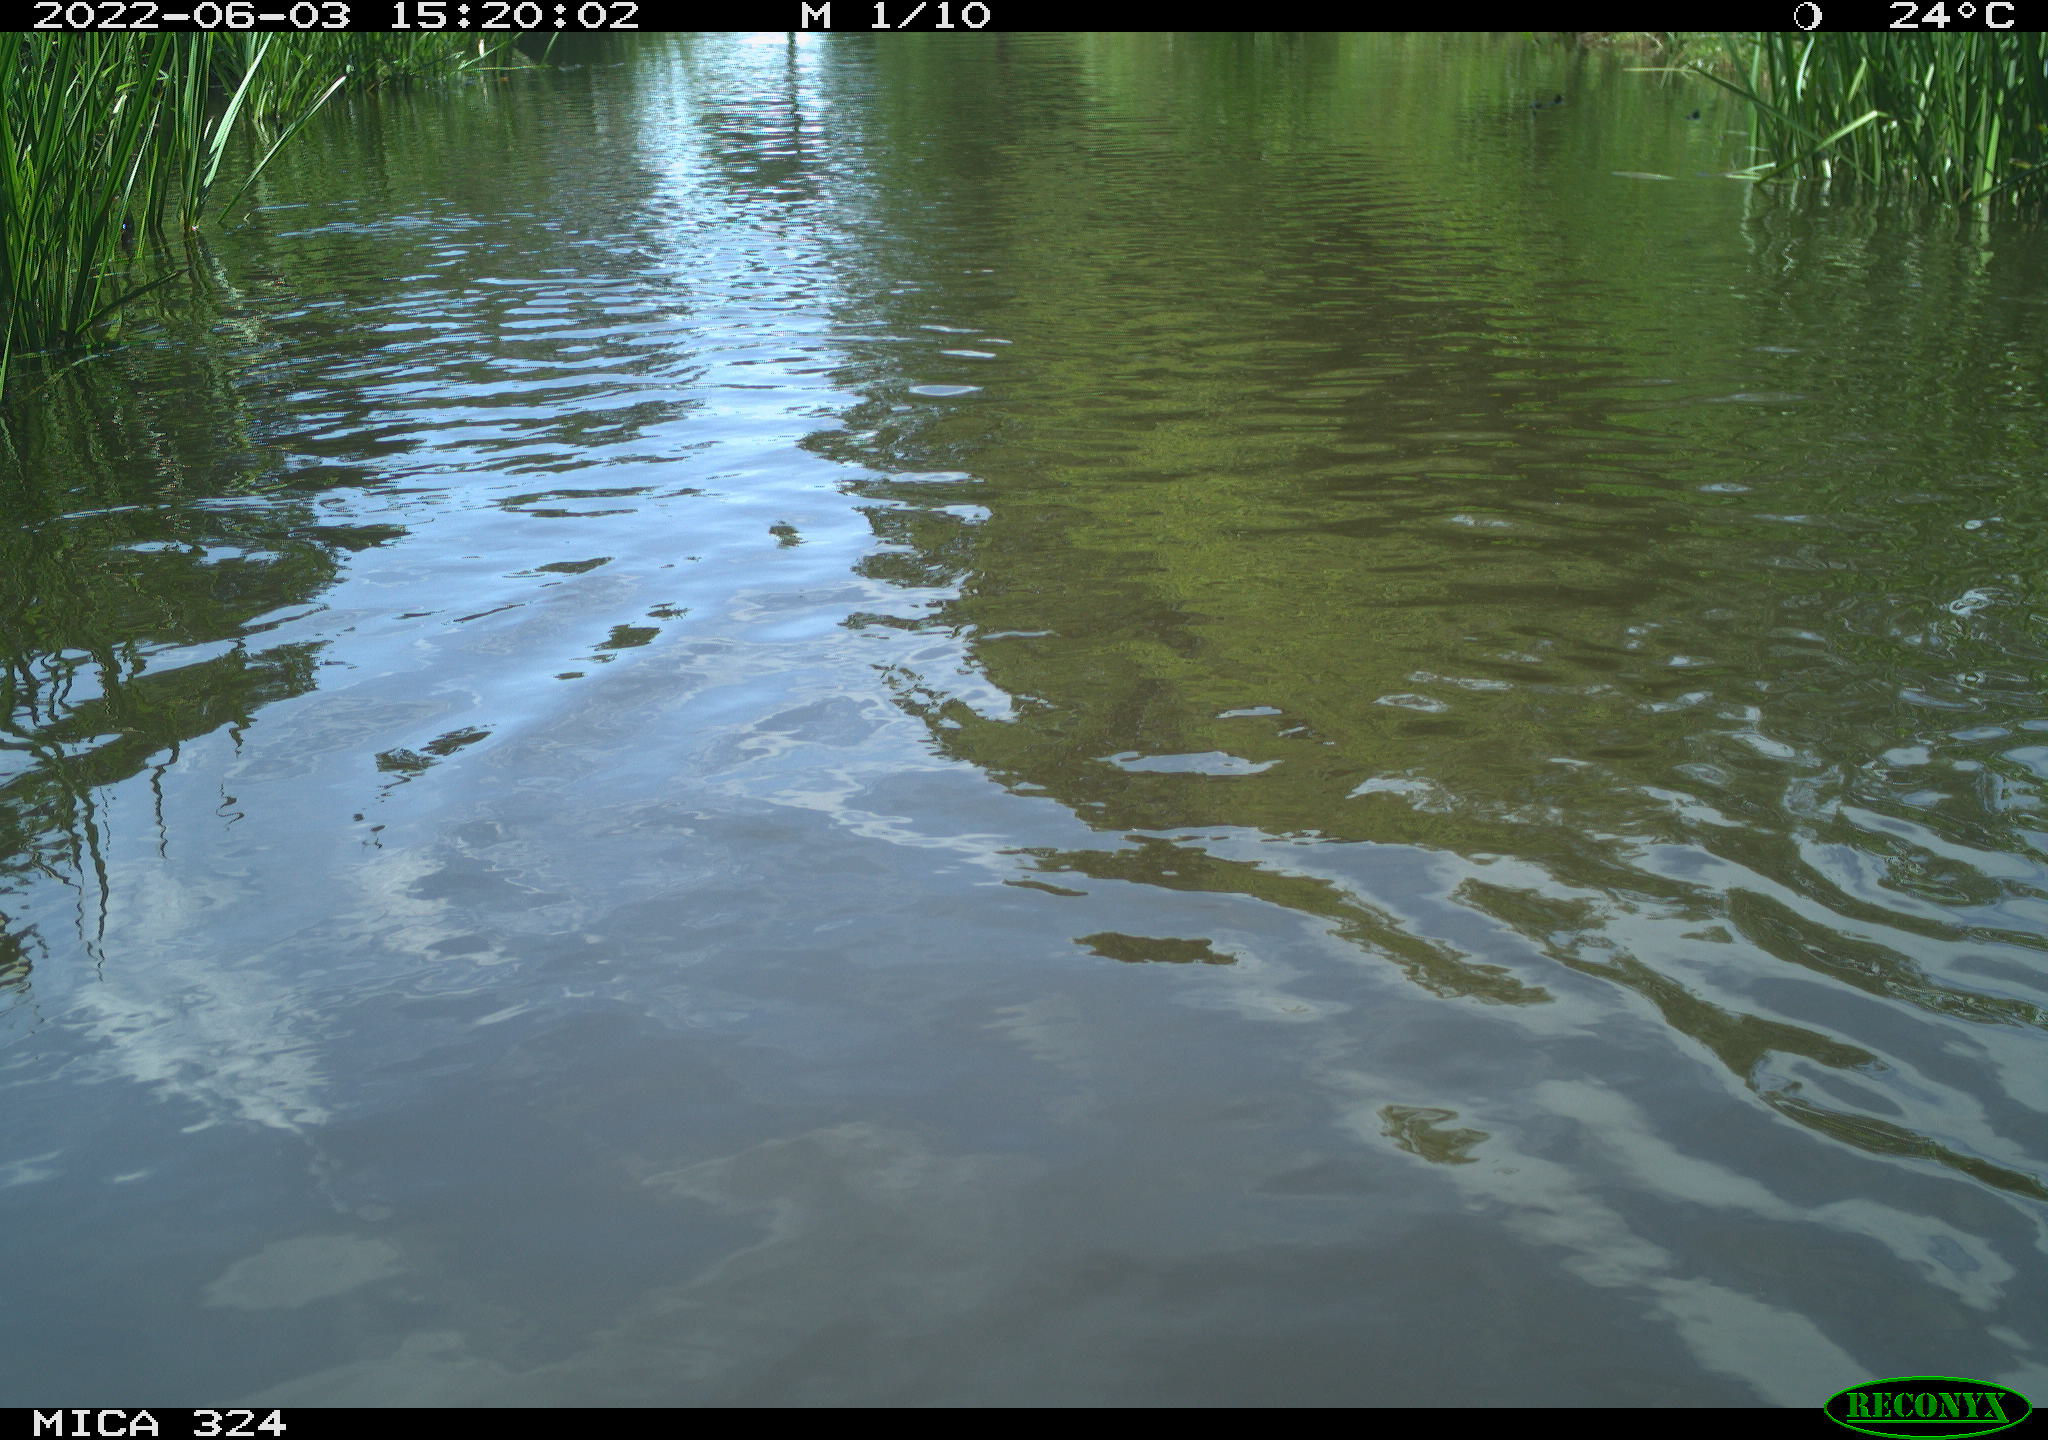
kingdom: Animalia
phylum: Chordata
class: Aves
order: Gruiformes
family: Rallidae
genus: Fulica
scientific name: Fulica atra
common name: Eurasian coot
